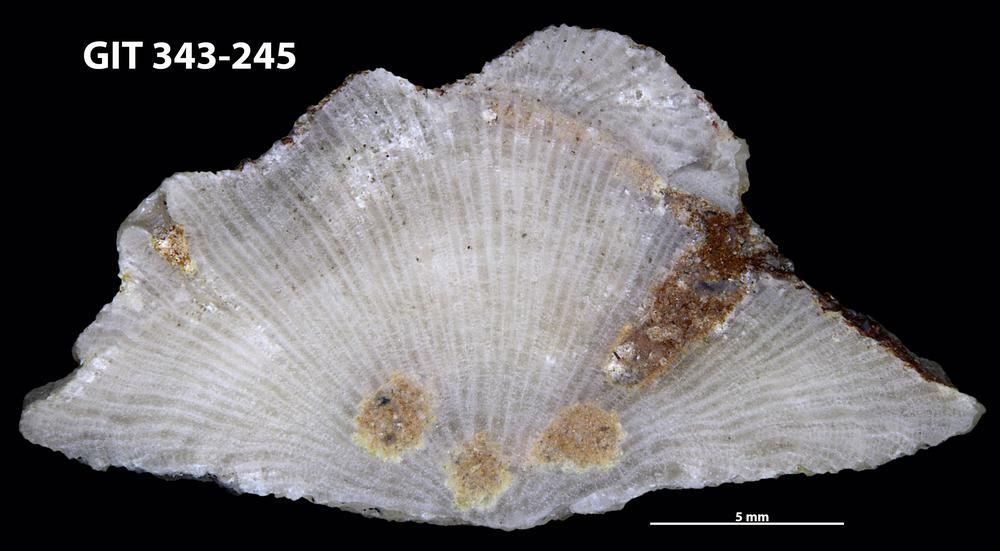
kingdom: Animalia
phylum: Bryozoa
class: Stenolaemata
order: Trepostomatida
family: Monticuliporidae
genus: Mesotrypa
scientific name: Mesotrypa excentrica
